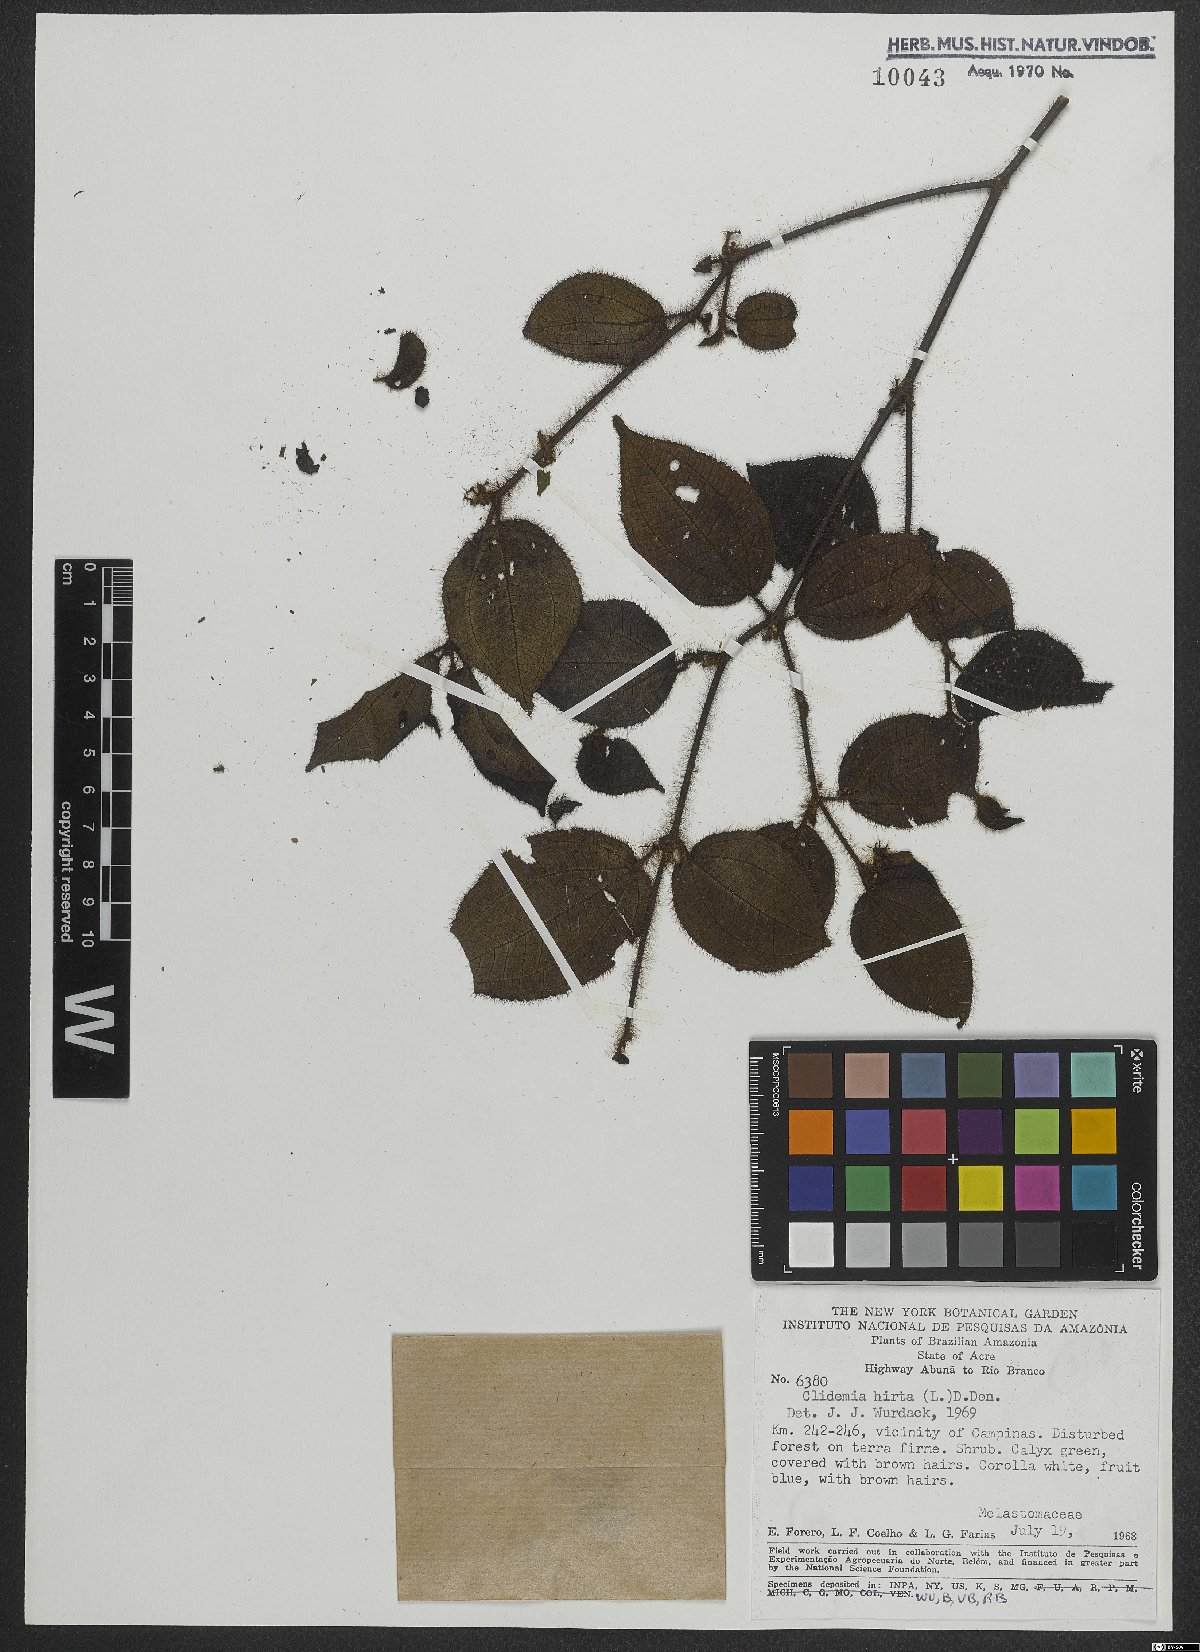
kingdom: Plantae
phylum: Tracheophyta
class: Magnoliopsida
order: Myrtales
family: Melastomataceae
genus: Miconia
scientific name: Miconia crenata
